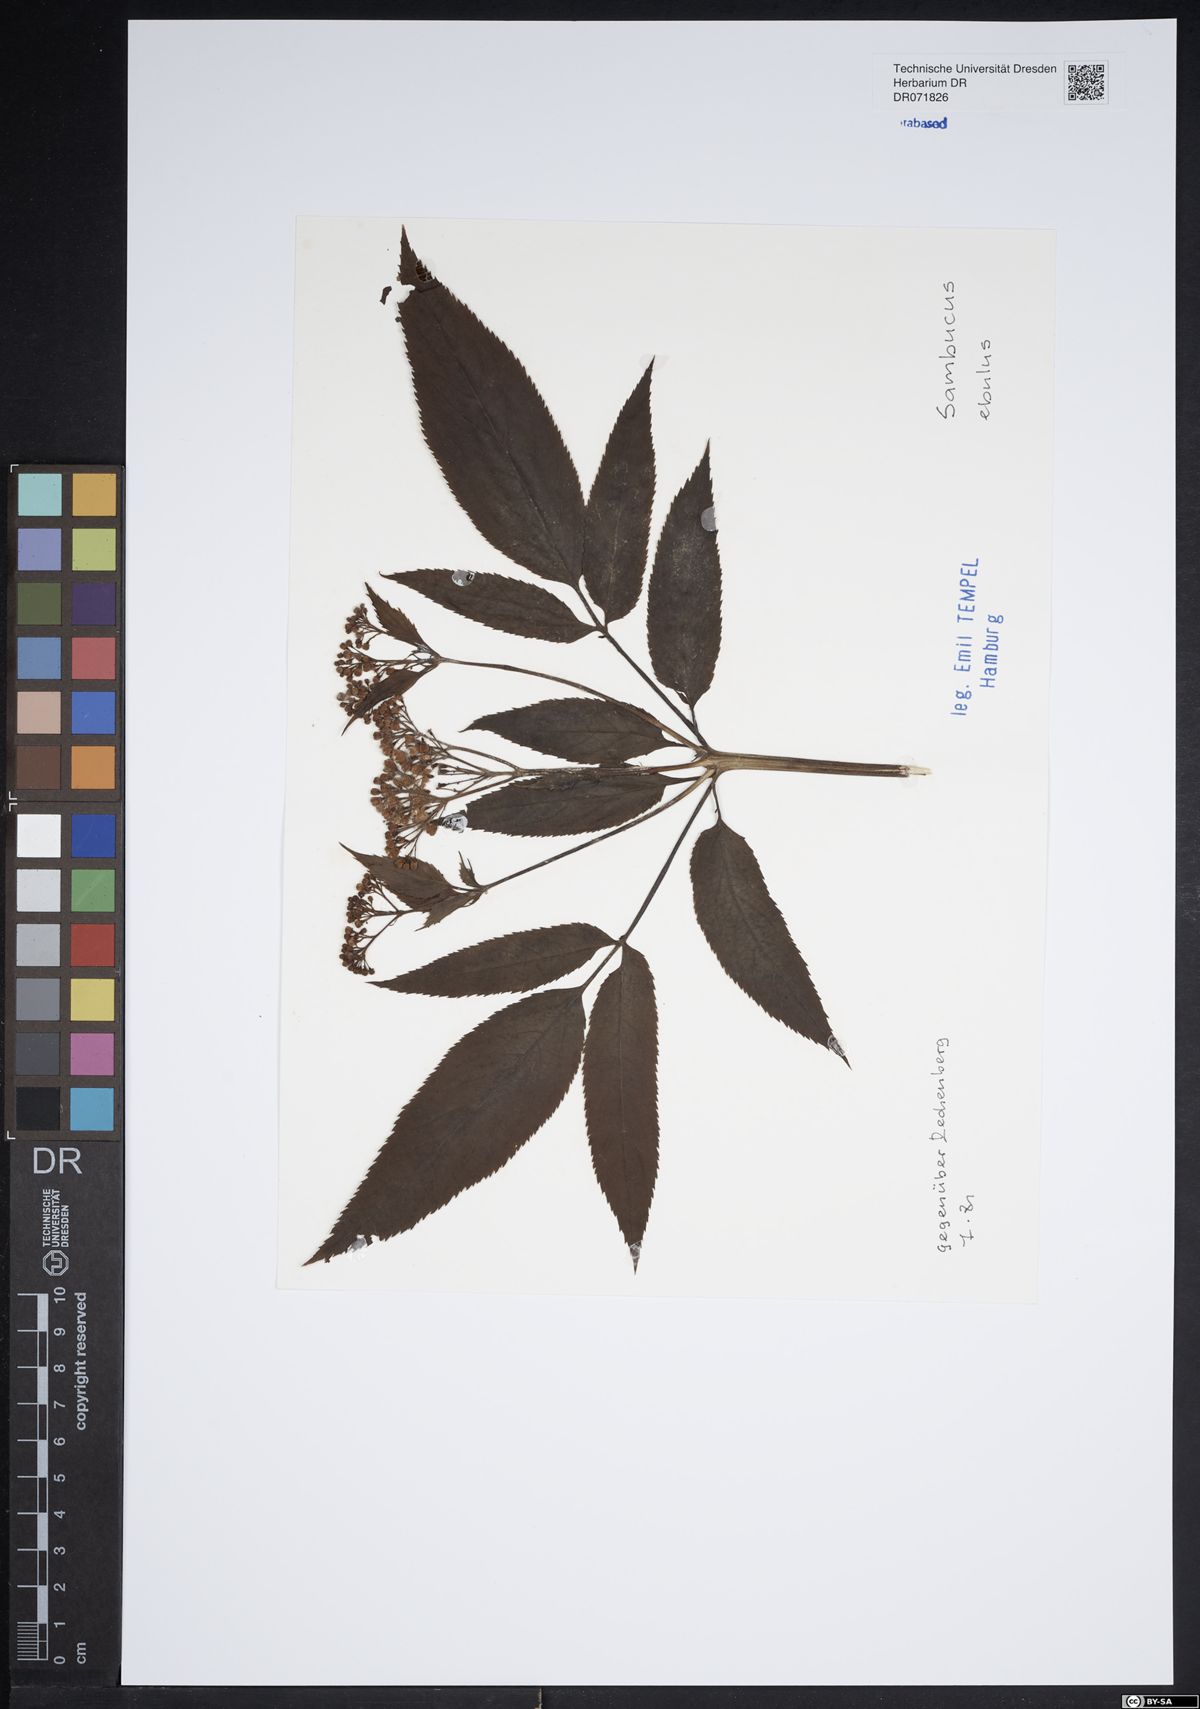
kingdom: Plantae
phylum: Tracheophyta
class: Magnoliopsida
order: Dipsacales
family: Viburnaceae
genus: Sambucus
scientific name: Sambucus ebulus
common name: Dwarf elder
